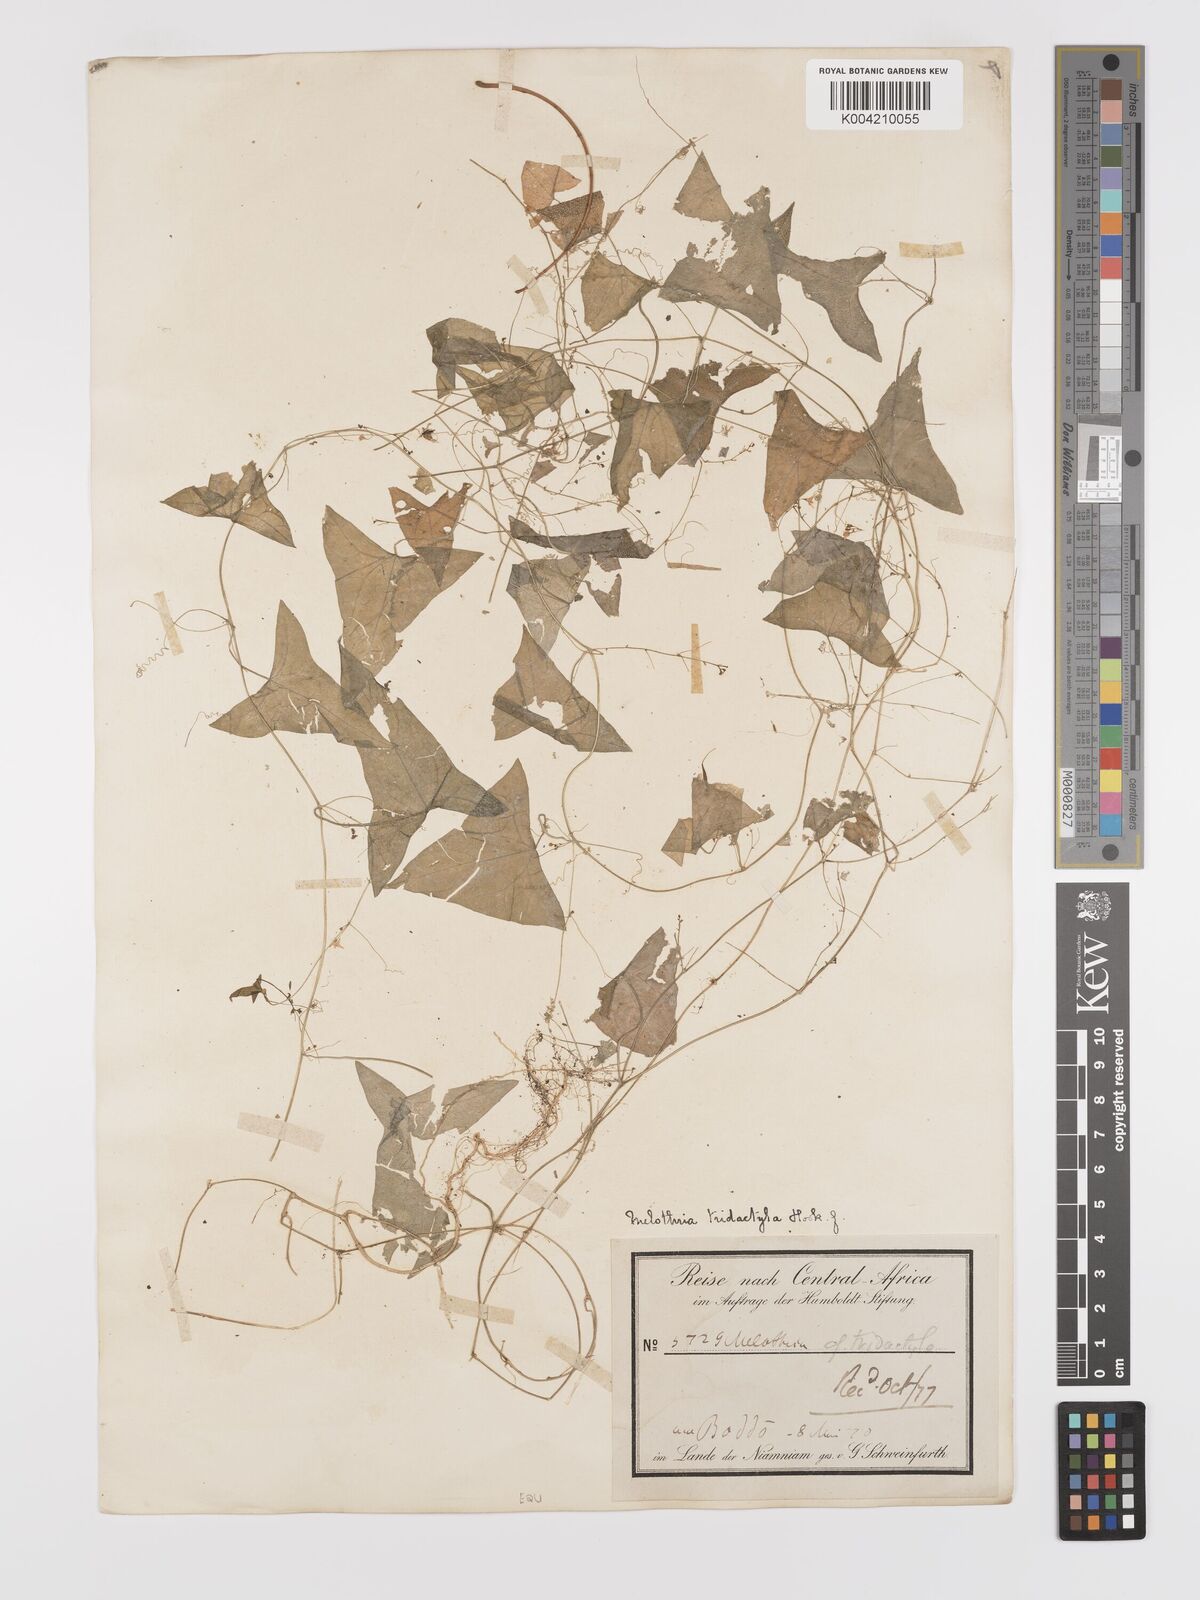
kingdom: Plantae
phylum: Tracheophyta
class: Magnoliopsida
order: Cucurbitales
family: Cucurbitaceae
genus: Zehneria
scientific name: Zehneria thwaitesii
